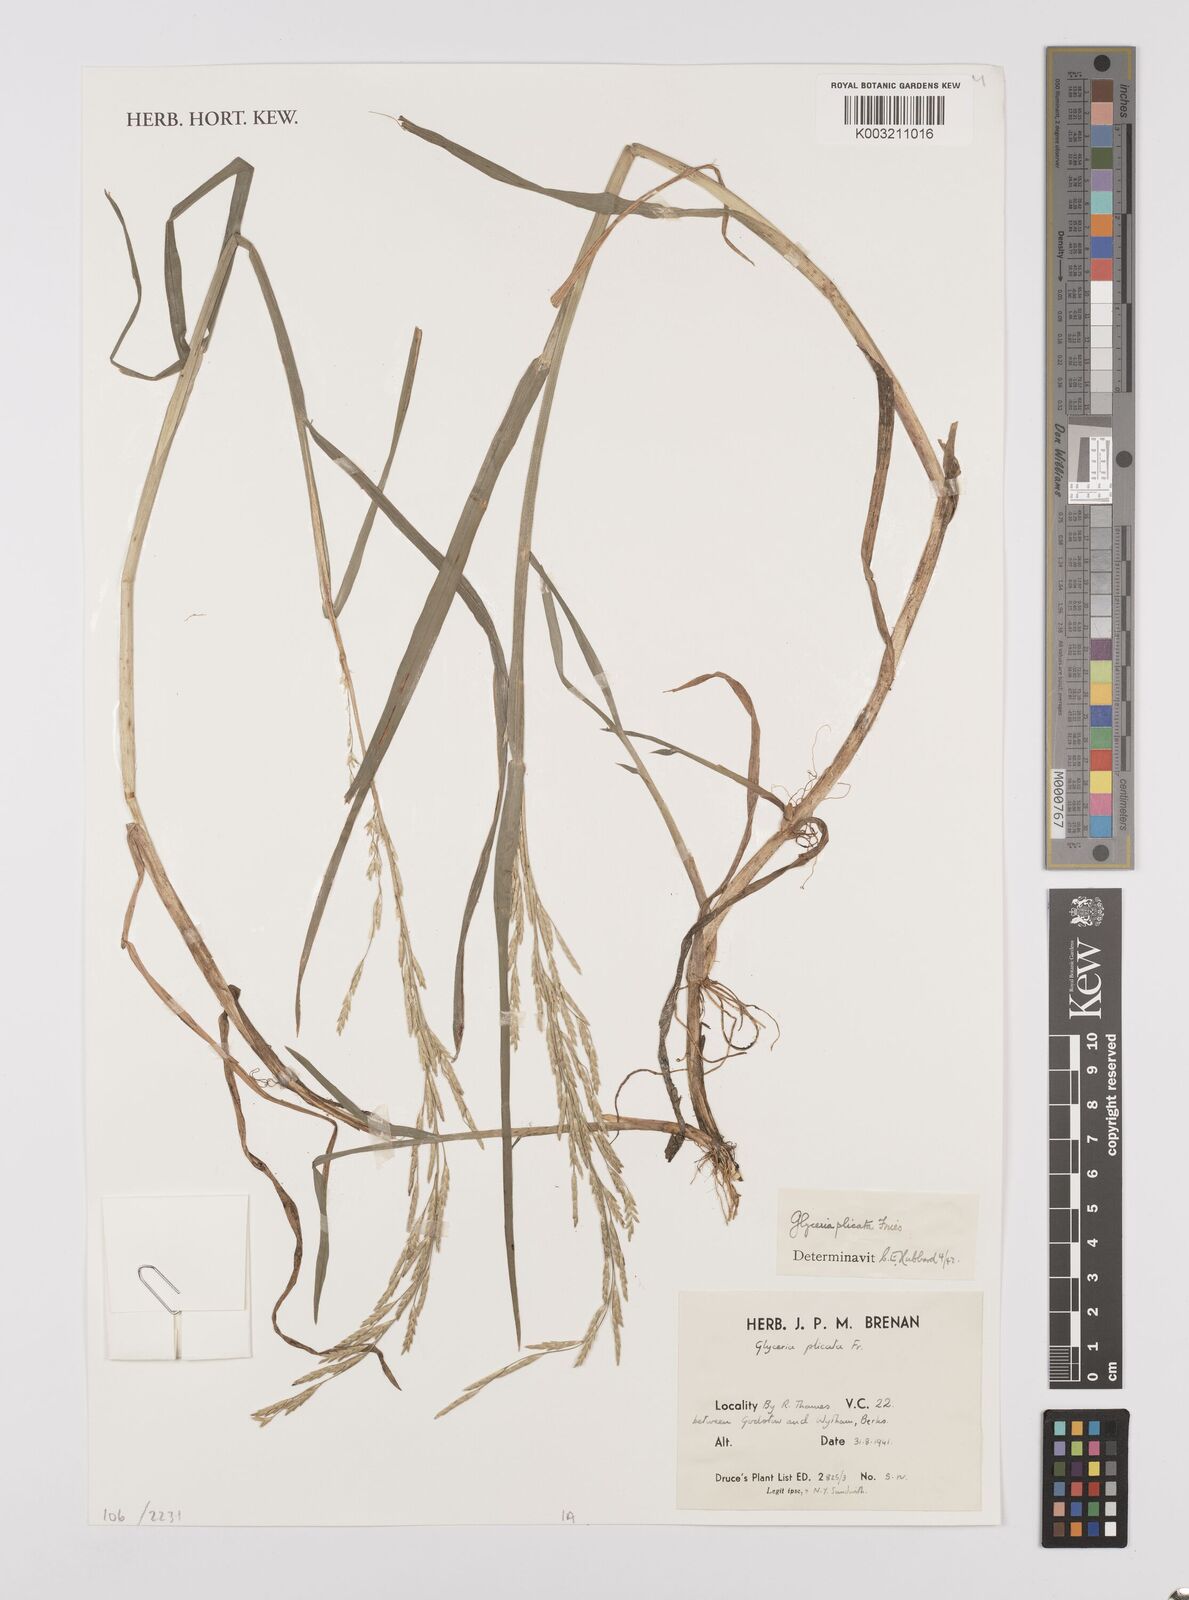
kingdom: Plantae
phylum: Tracheophyta
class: Liliopsida
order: Poales
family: Poaceae
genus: Glyceria
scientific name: Glyceria notata
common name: Plicate sweet-grass
